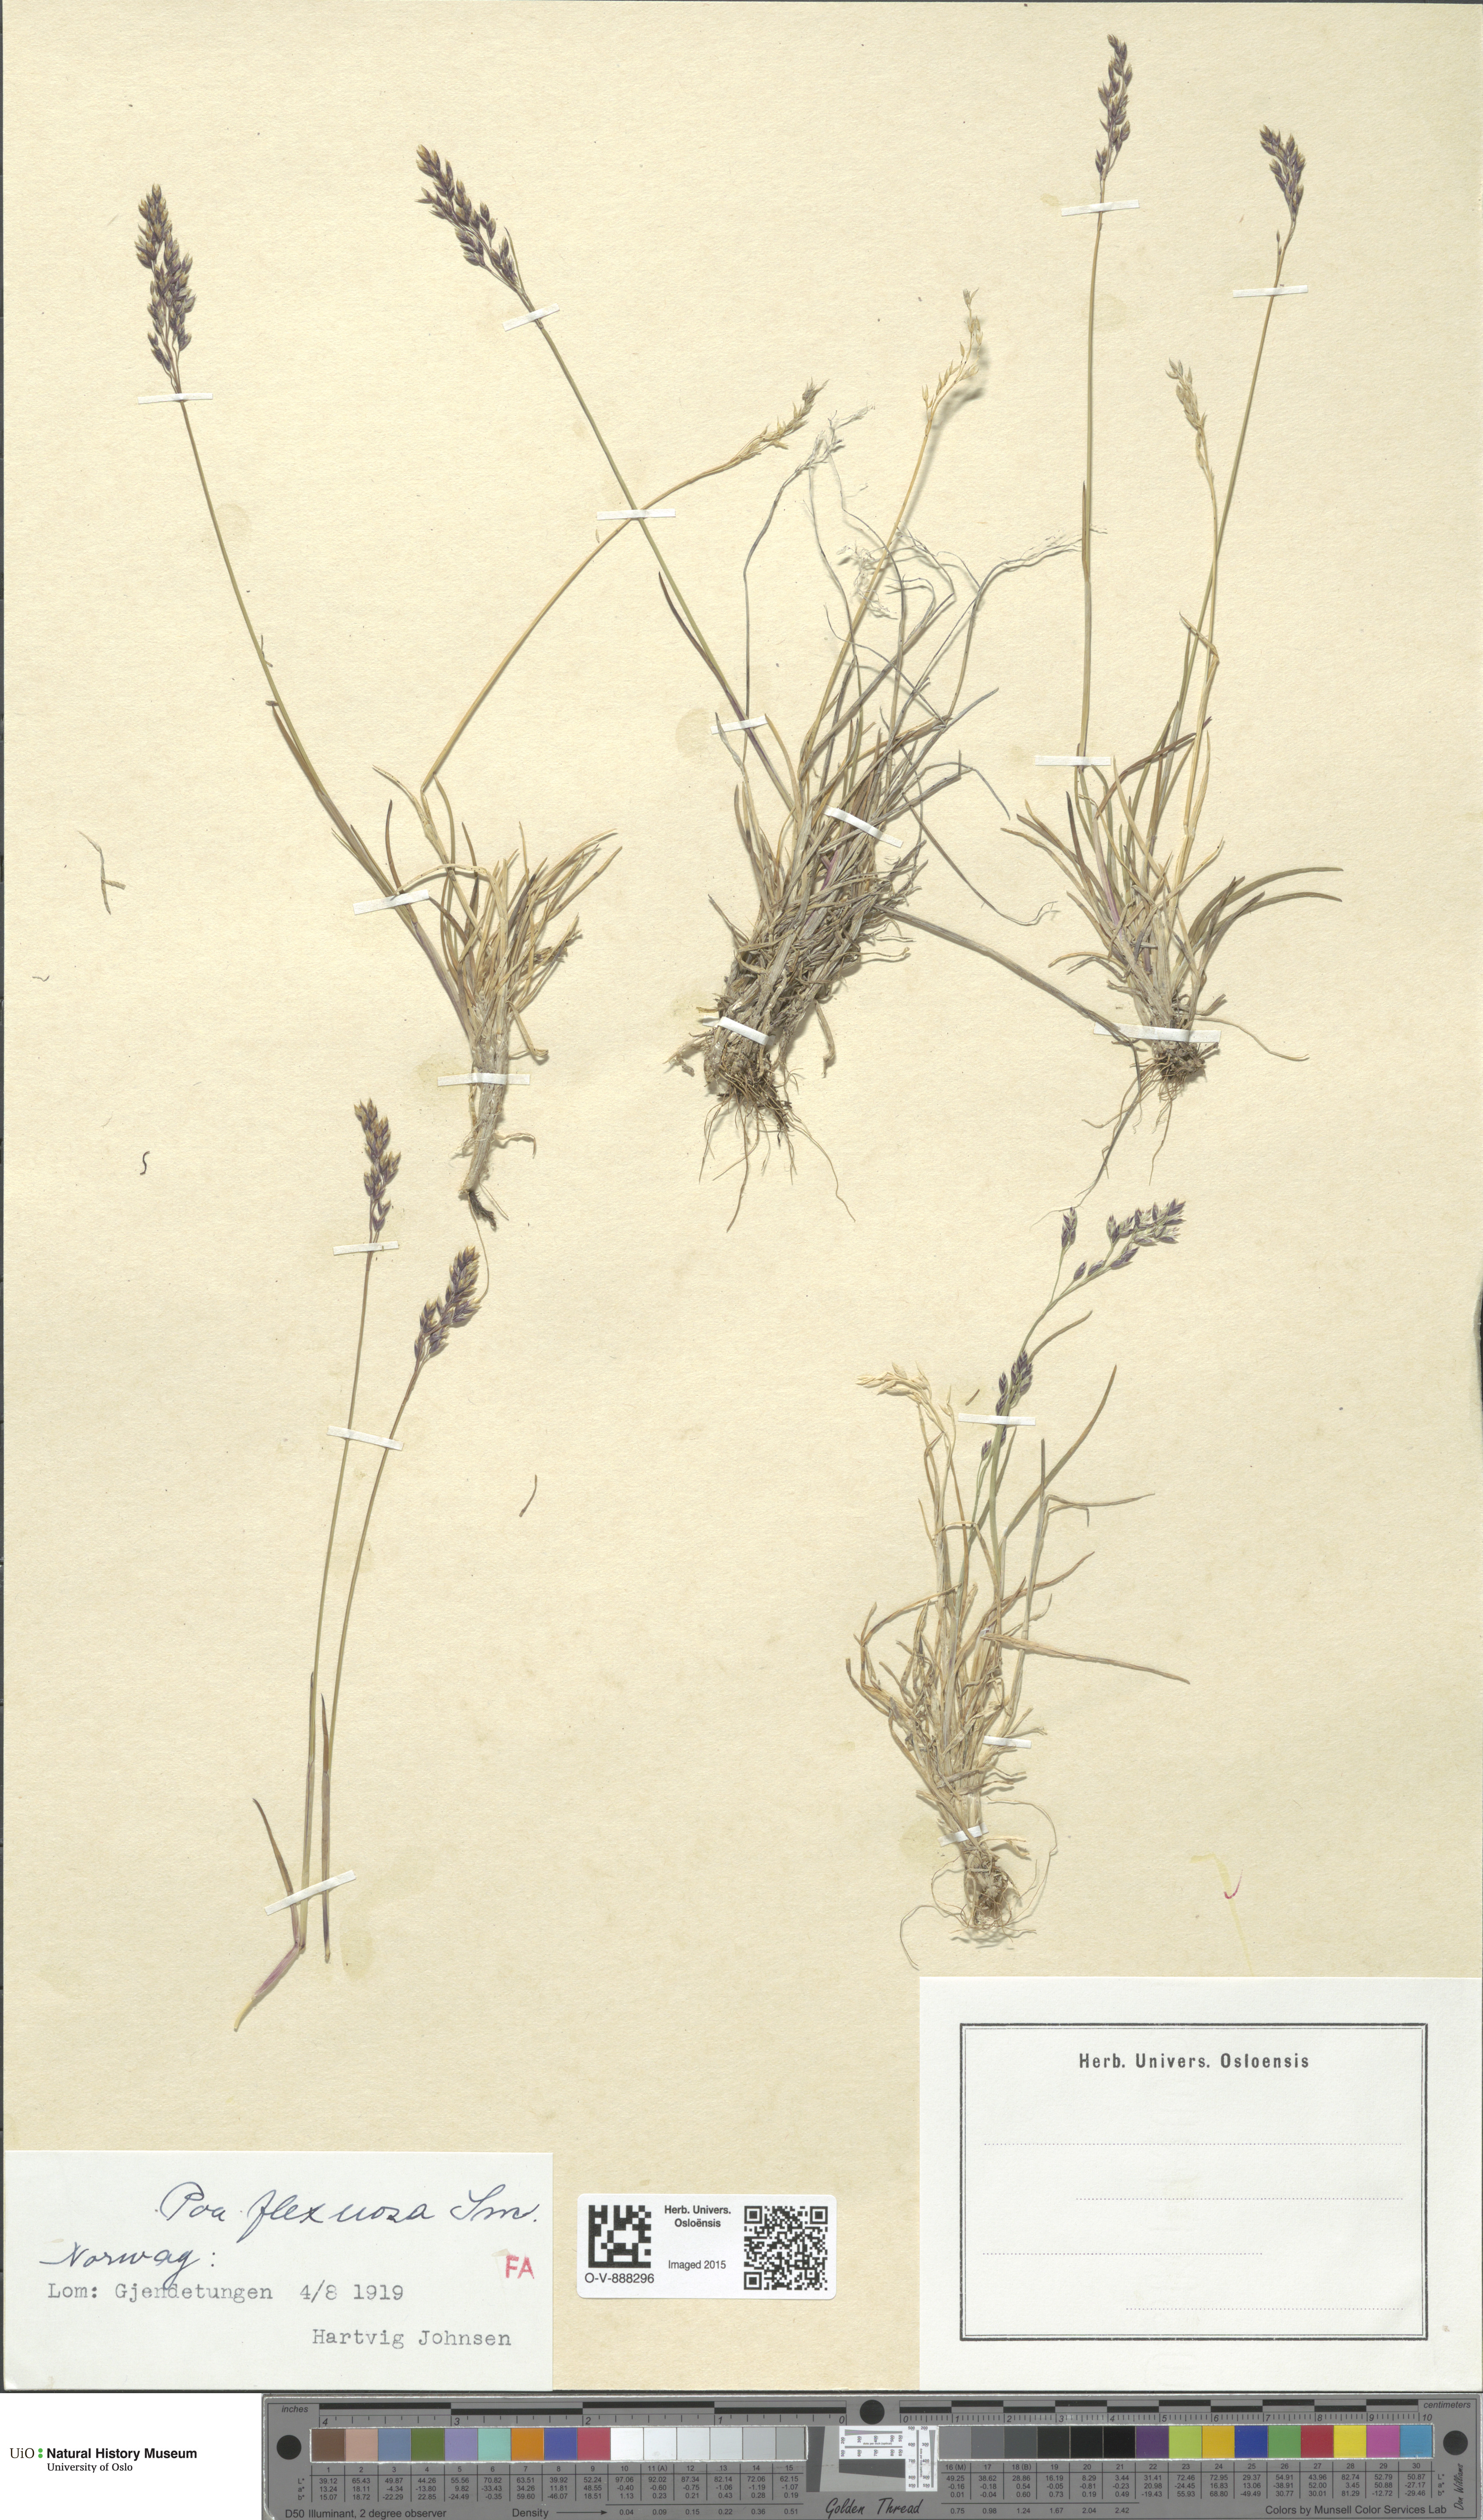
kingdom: Plantae
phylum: Tracheophyta
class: Liliopsida
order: Poales
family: Poaceae
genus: Poa
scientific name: Poa flexuosa
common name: Wavy meadow-grass
